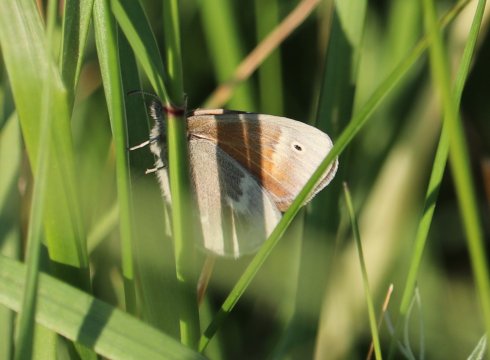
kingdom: Animalia
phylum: Arthropoda
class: Insecta
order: Lepidoptera
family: Nymphalidae
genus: Coenonympha
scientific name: Coenonympha
